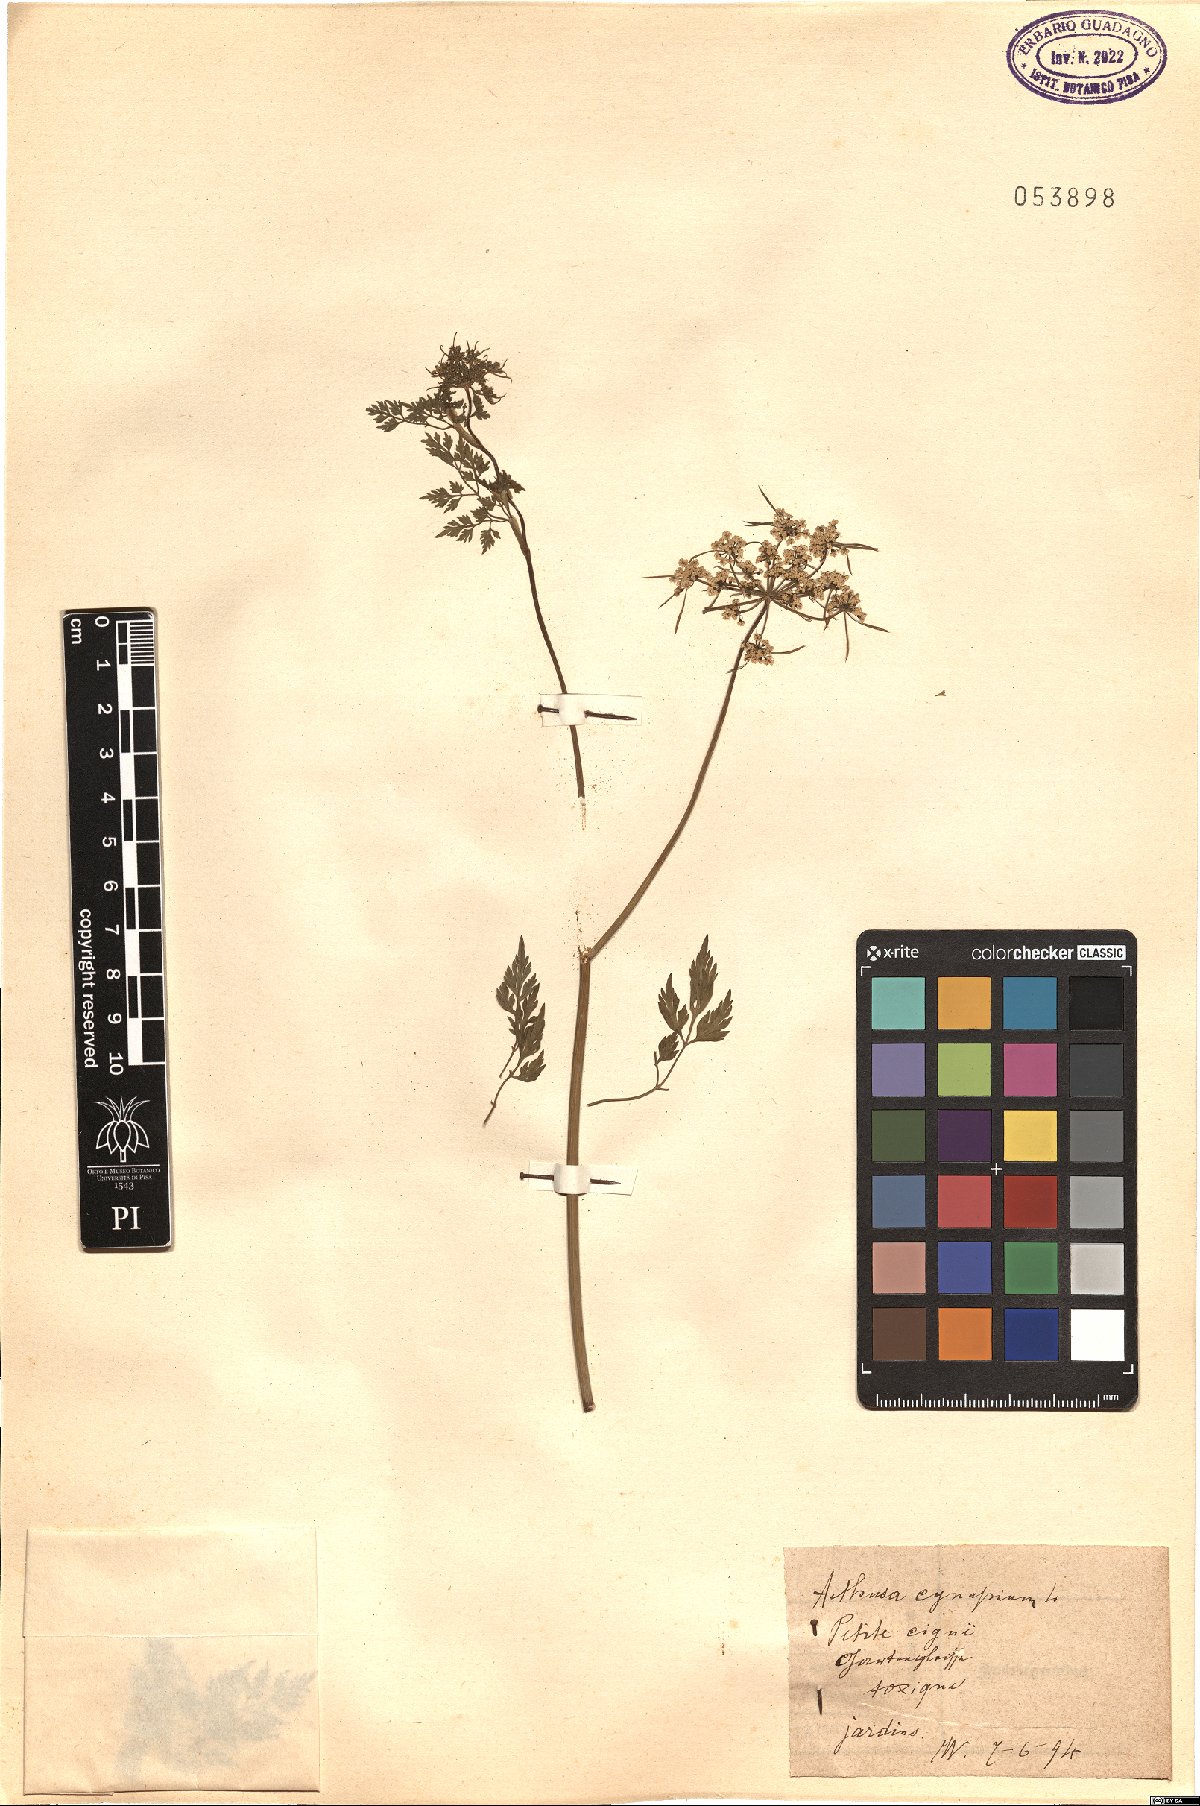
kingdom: Plantae
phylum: Tracheophyta
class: Magnoliopsida
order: Apiales
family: Apiaceae
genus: Aethusa
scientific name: Aethusa cynapium
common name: Fool's parsley
